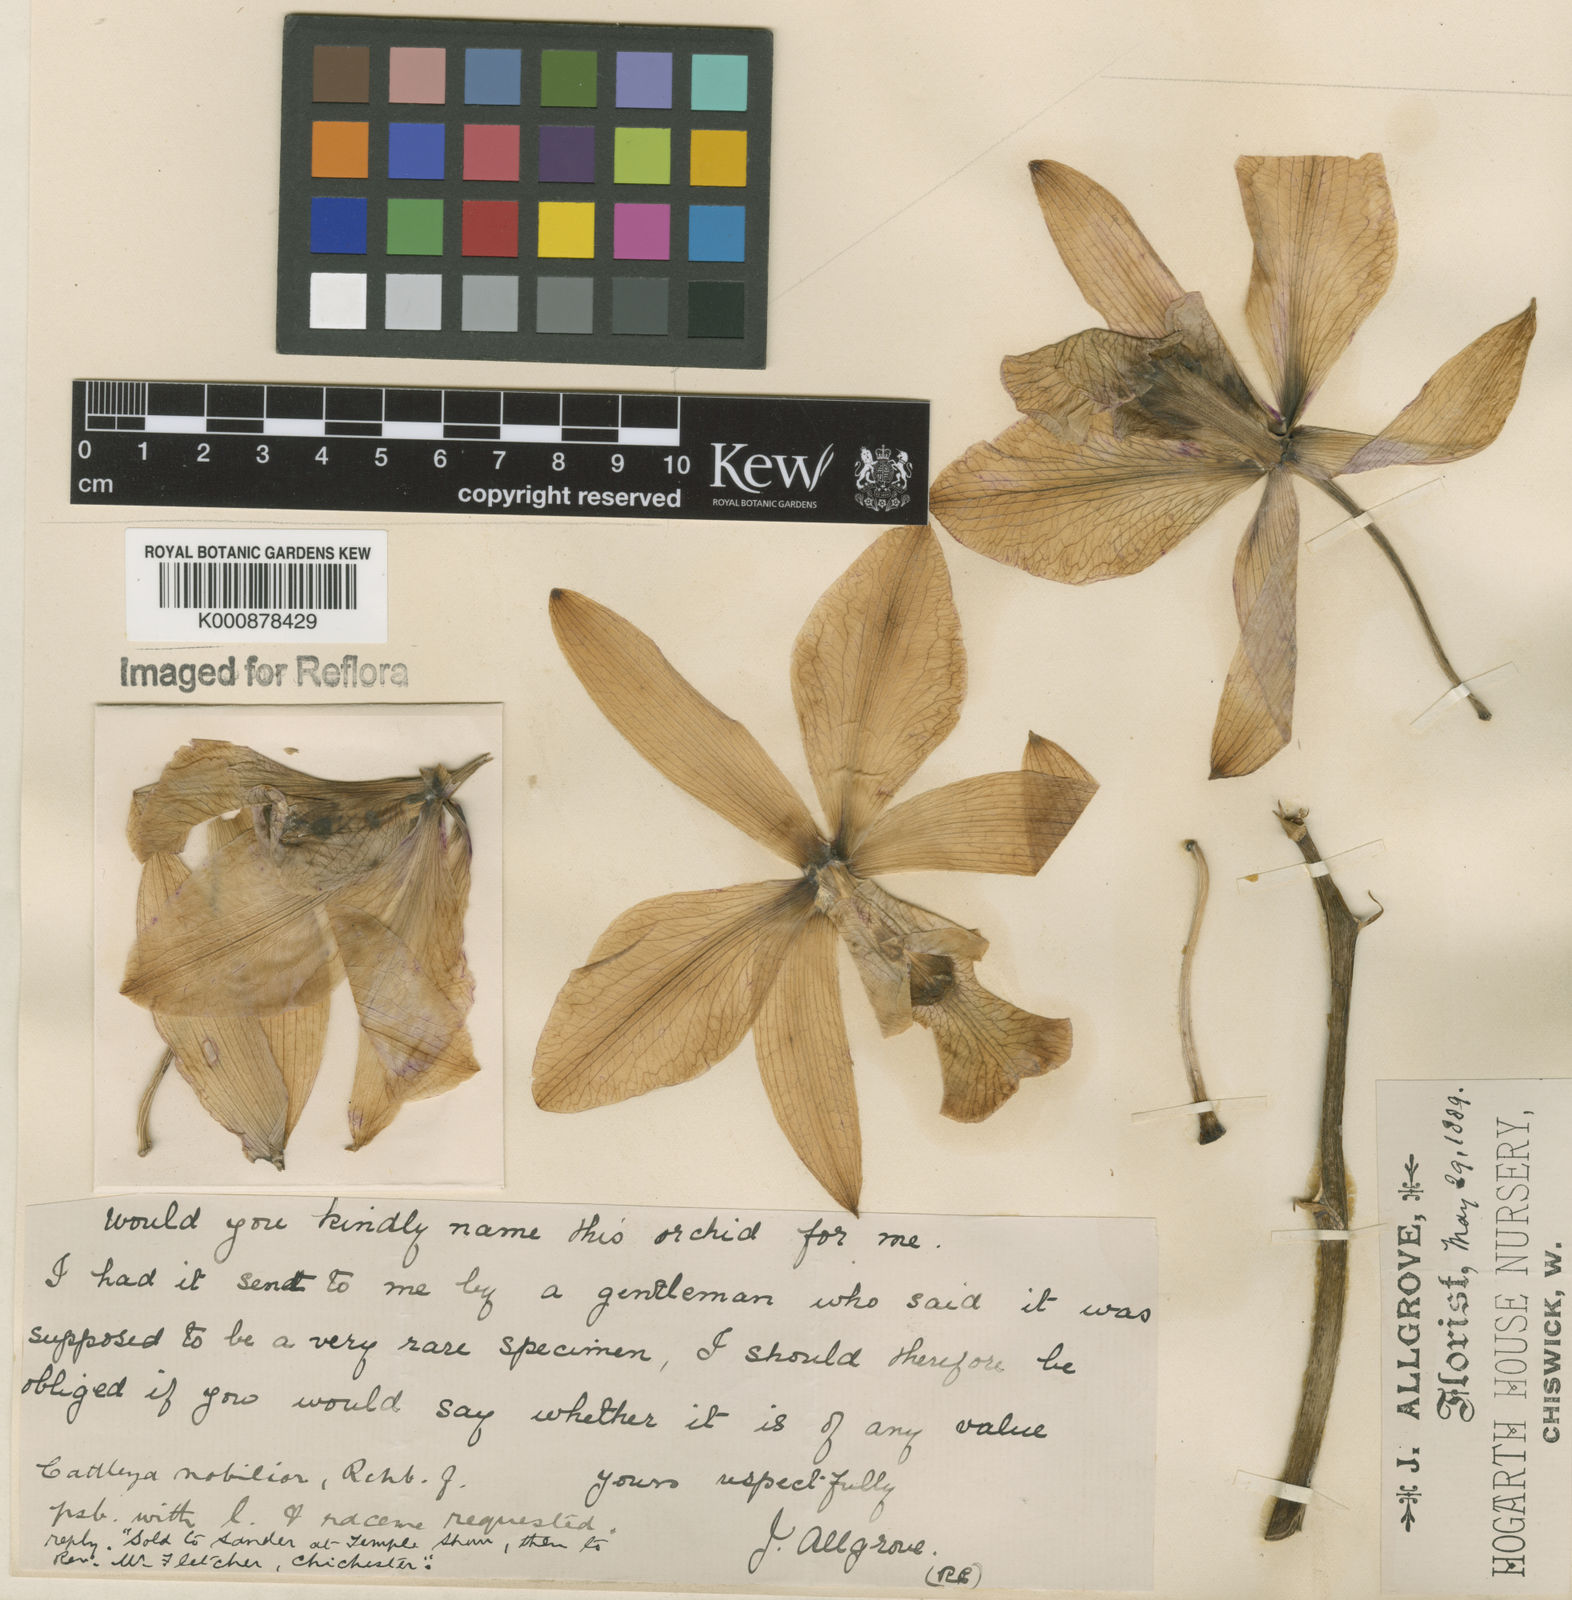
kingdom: Plantae
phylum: Tracheophyta
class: Liliopsida
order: Asparagales
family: Orchidaceae
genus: Cattleya
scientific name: Cattleya nobilior
